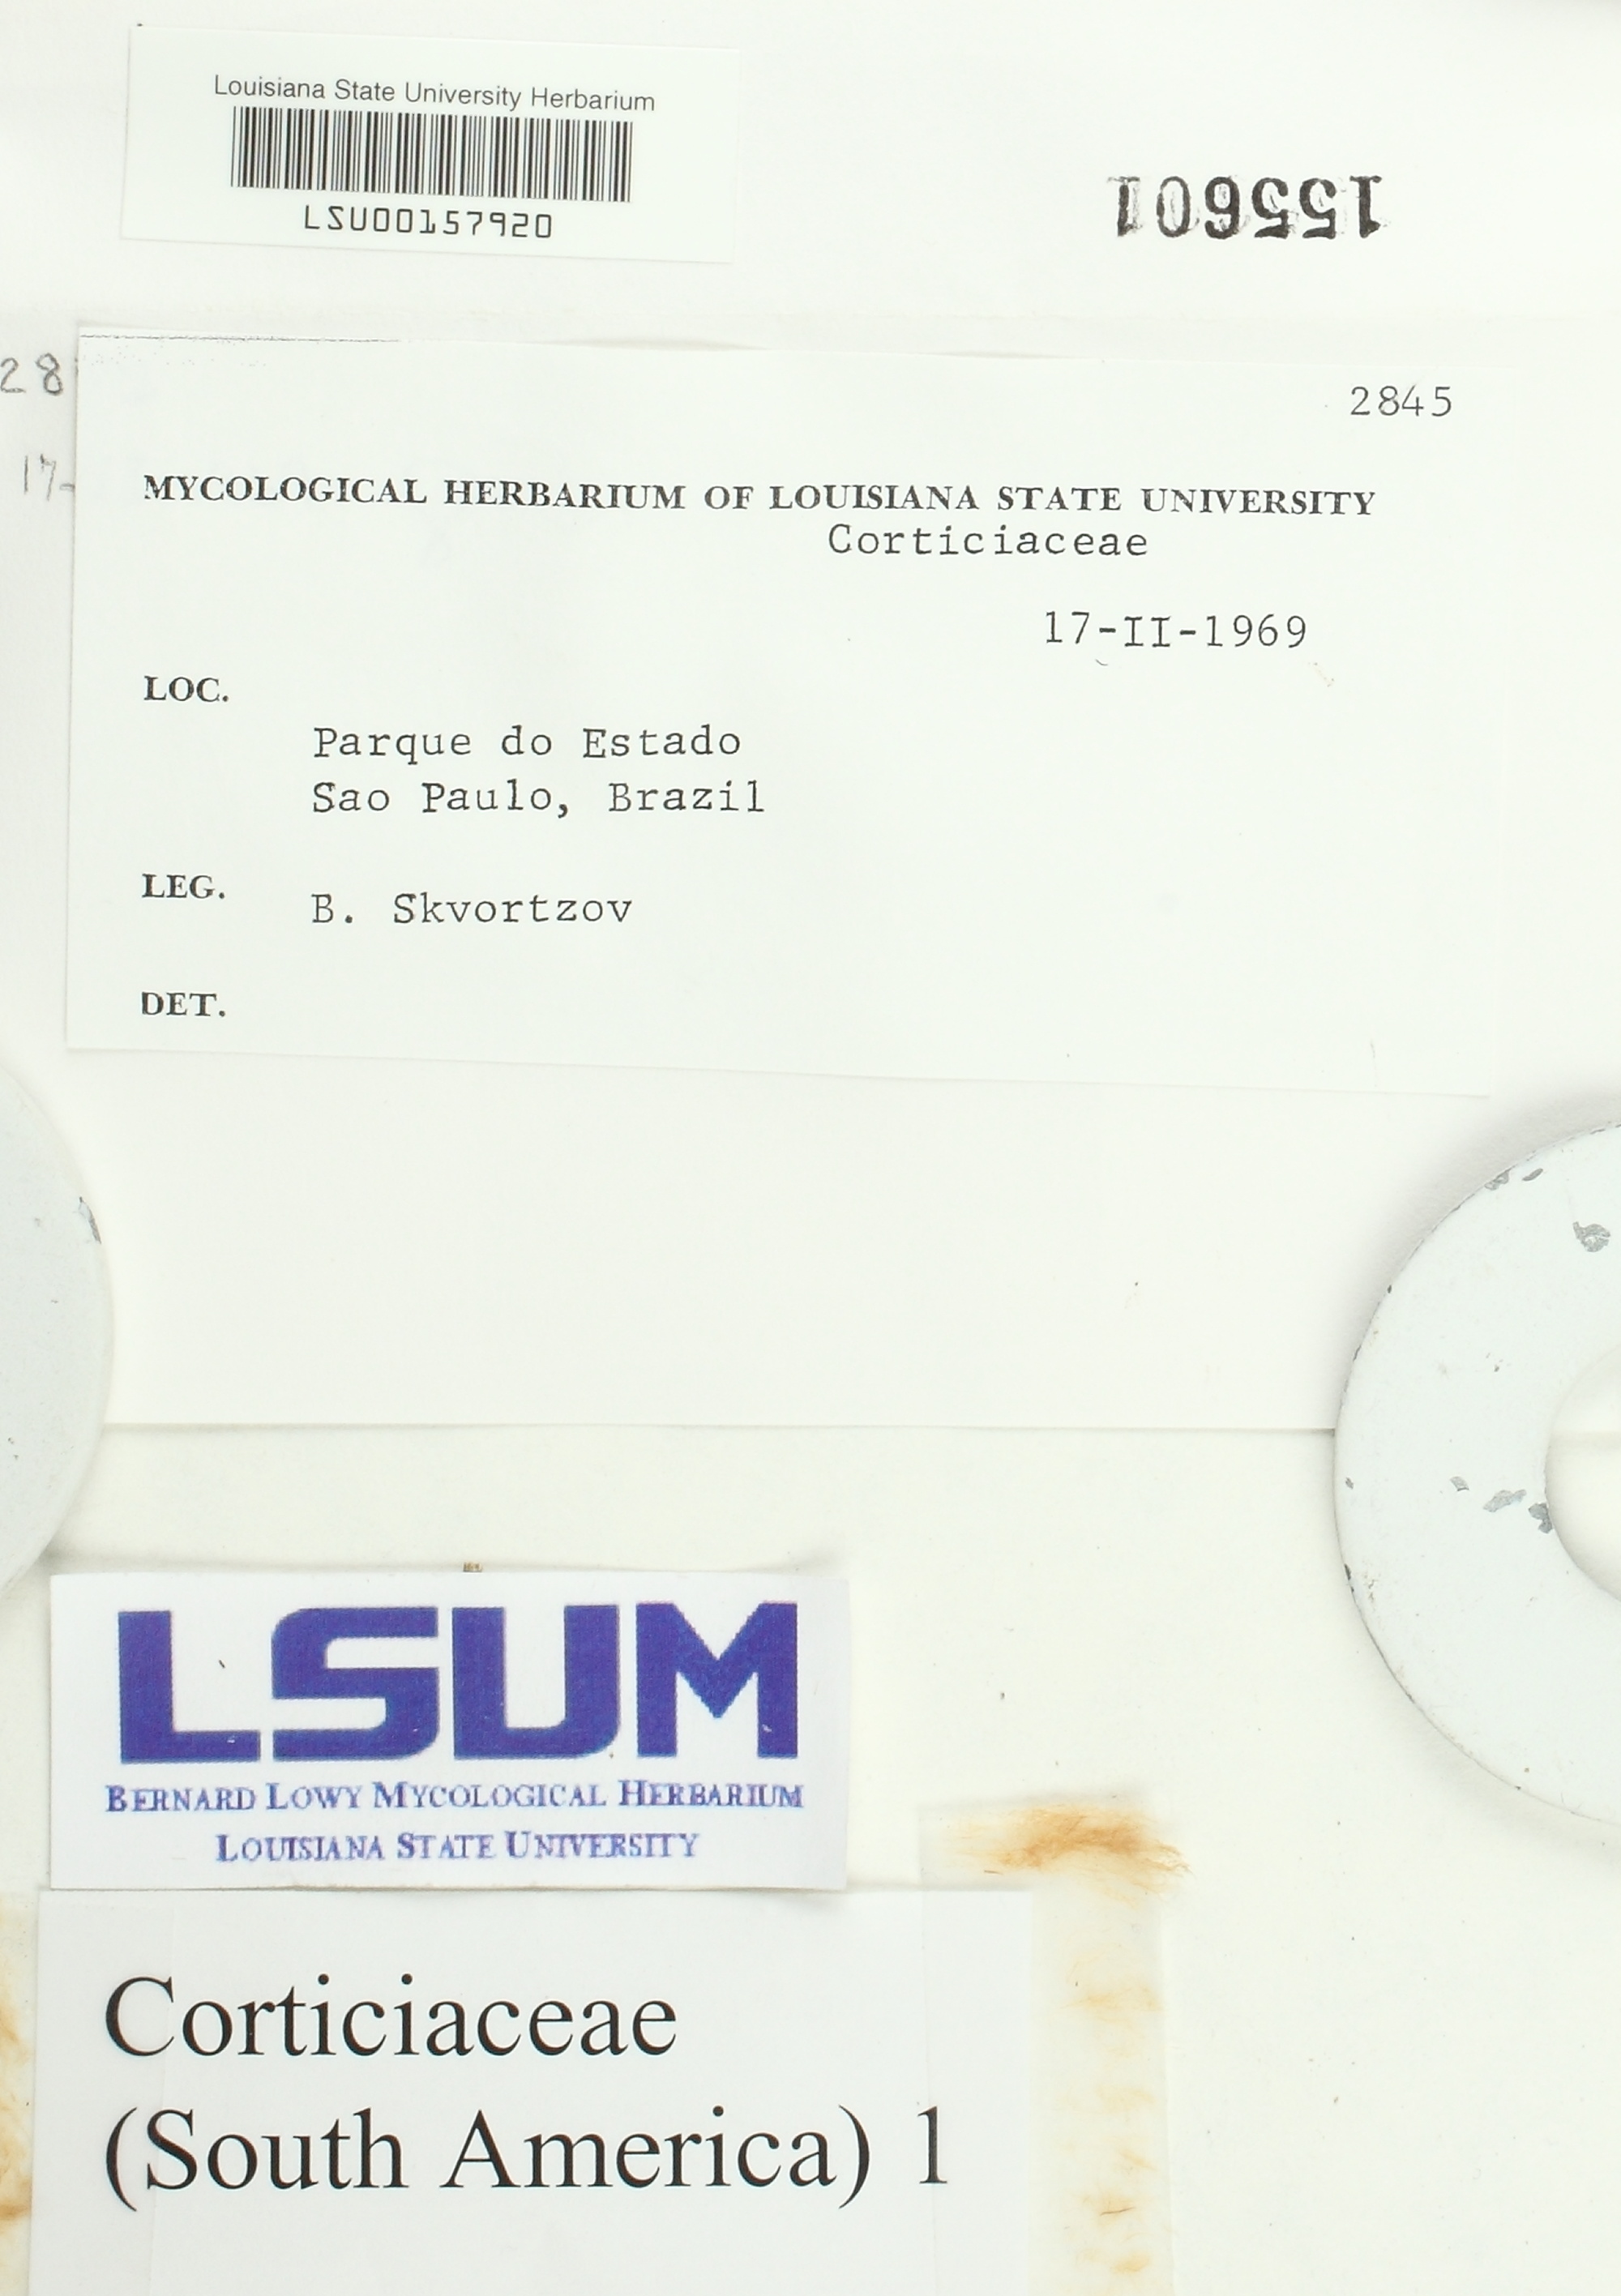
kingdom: Fungi
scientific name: Fungi
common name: Fungi
